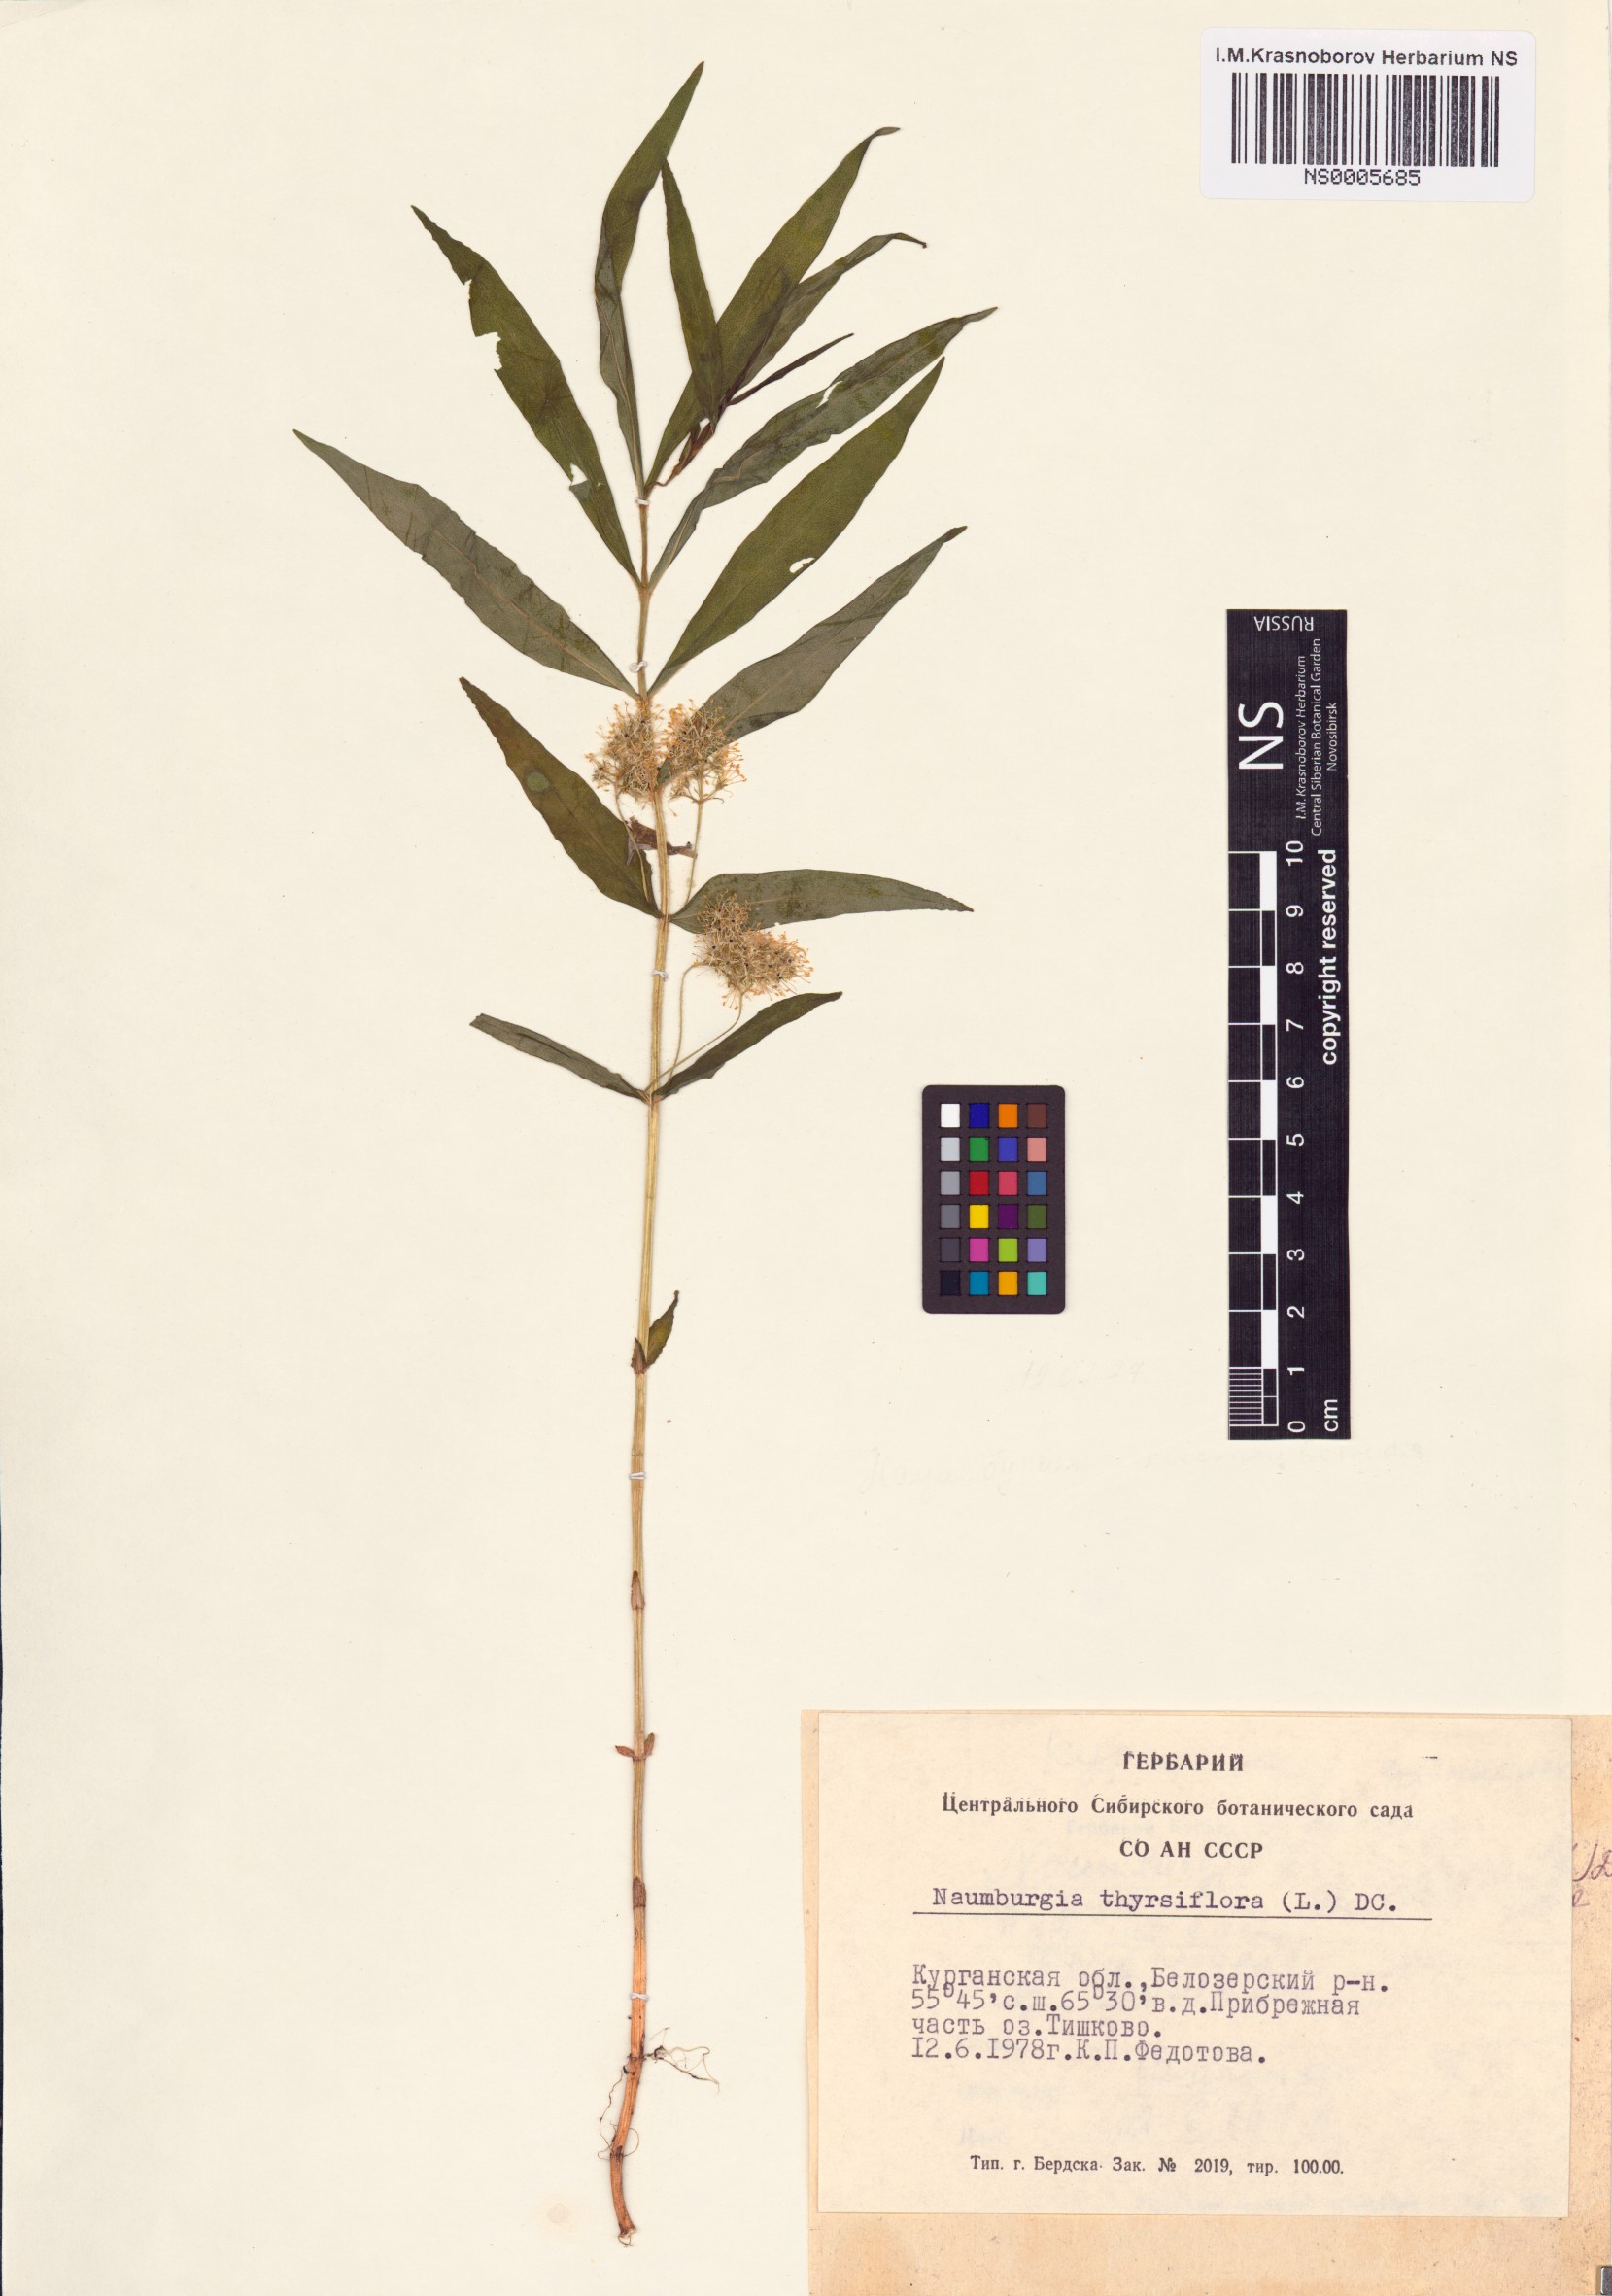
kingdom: Plantae
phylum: Tracheophyta
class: Magnoliopsida
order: Ericales
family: Primulaceae
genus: Lysimachia
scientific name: Lysimachia thyrsiflora
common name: Tufted loosestrife
